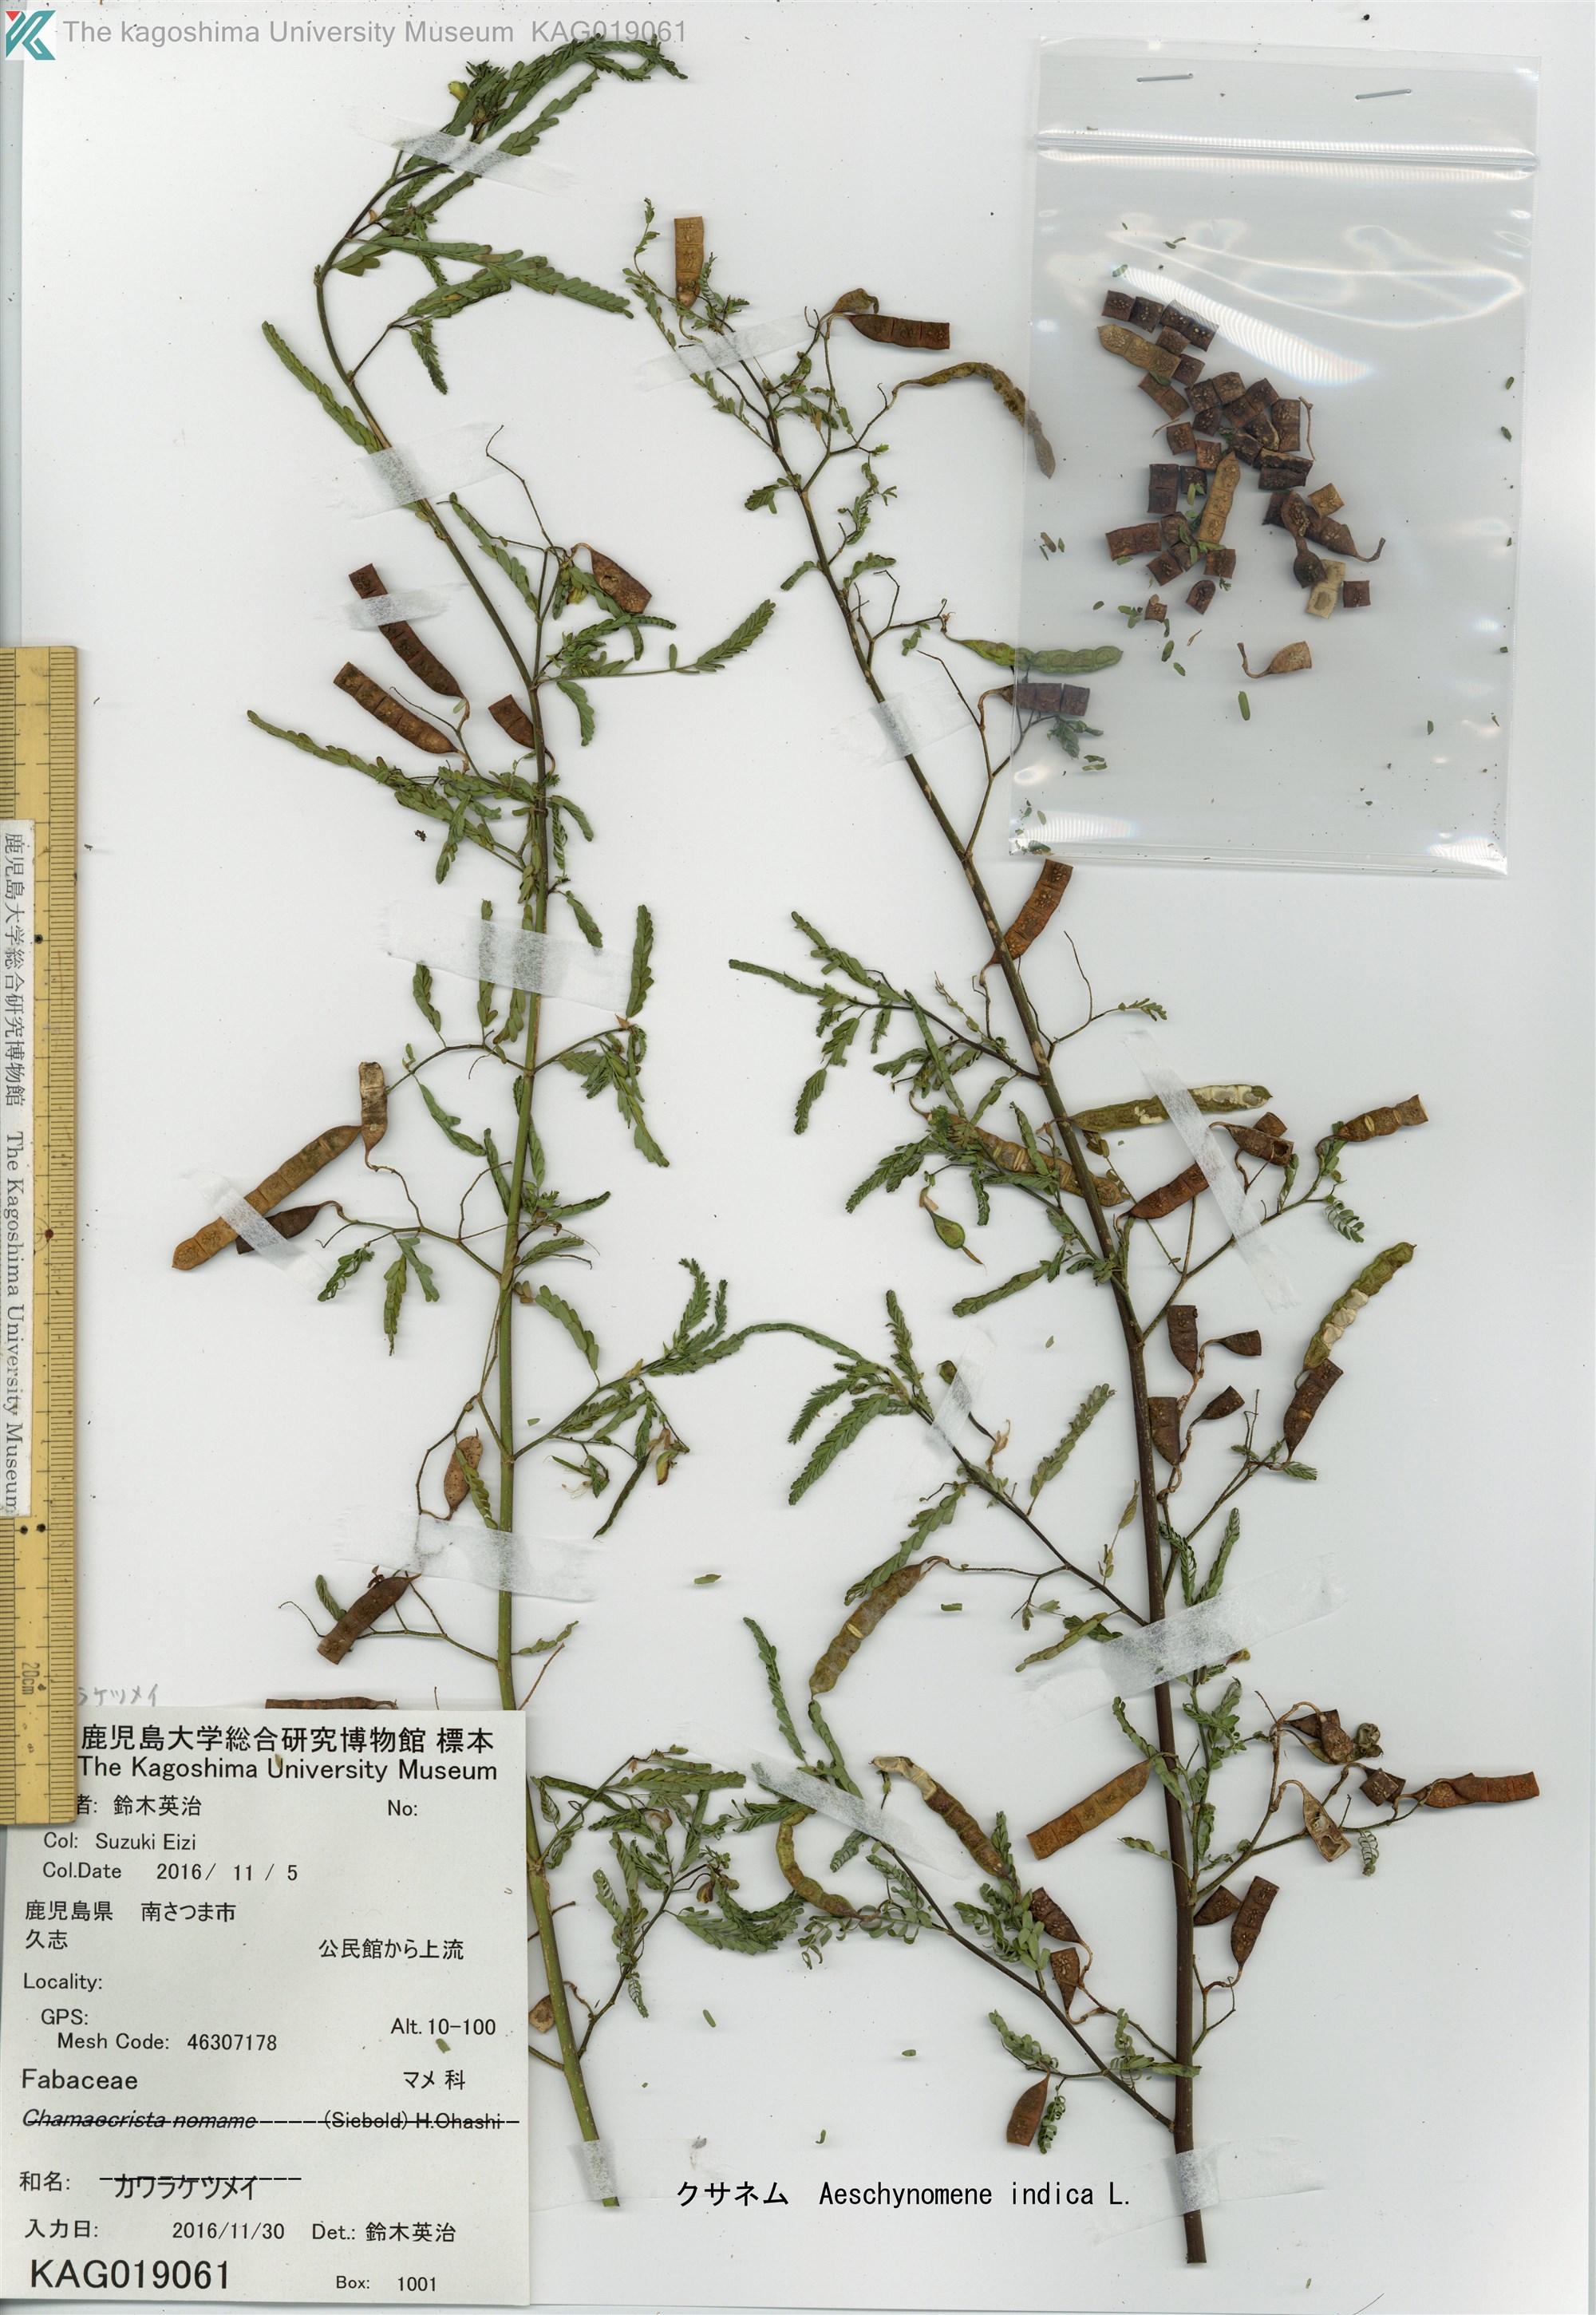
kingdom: Plantae
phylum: Tracheophyta
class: Magnoliopsida
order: Fabales
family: Fabaceae
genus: Aeschynomene
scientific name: Aeschynomene indica
